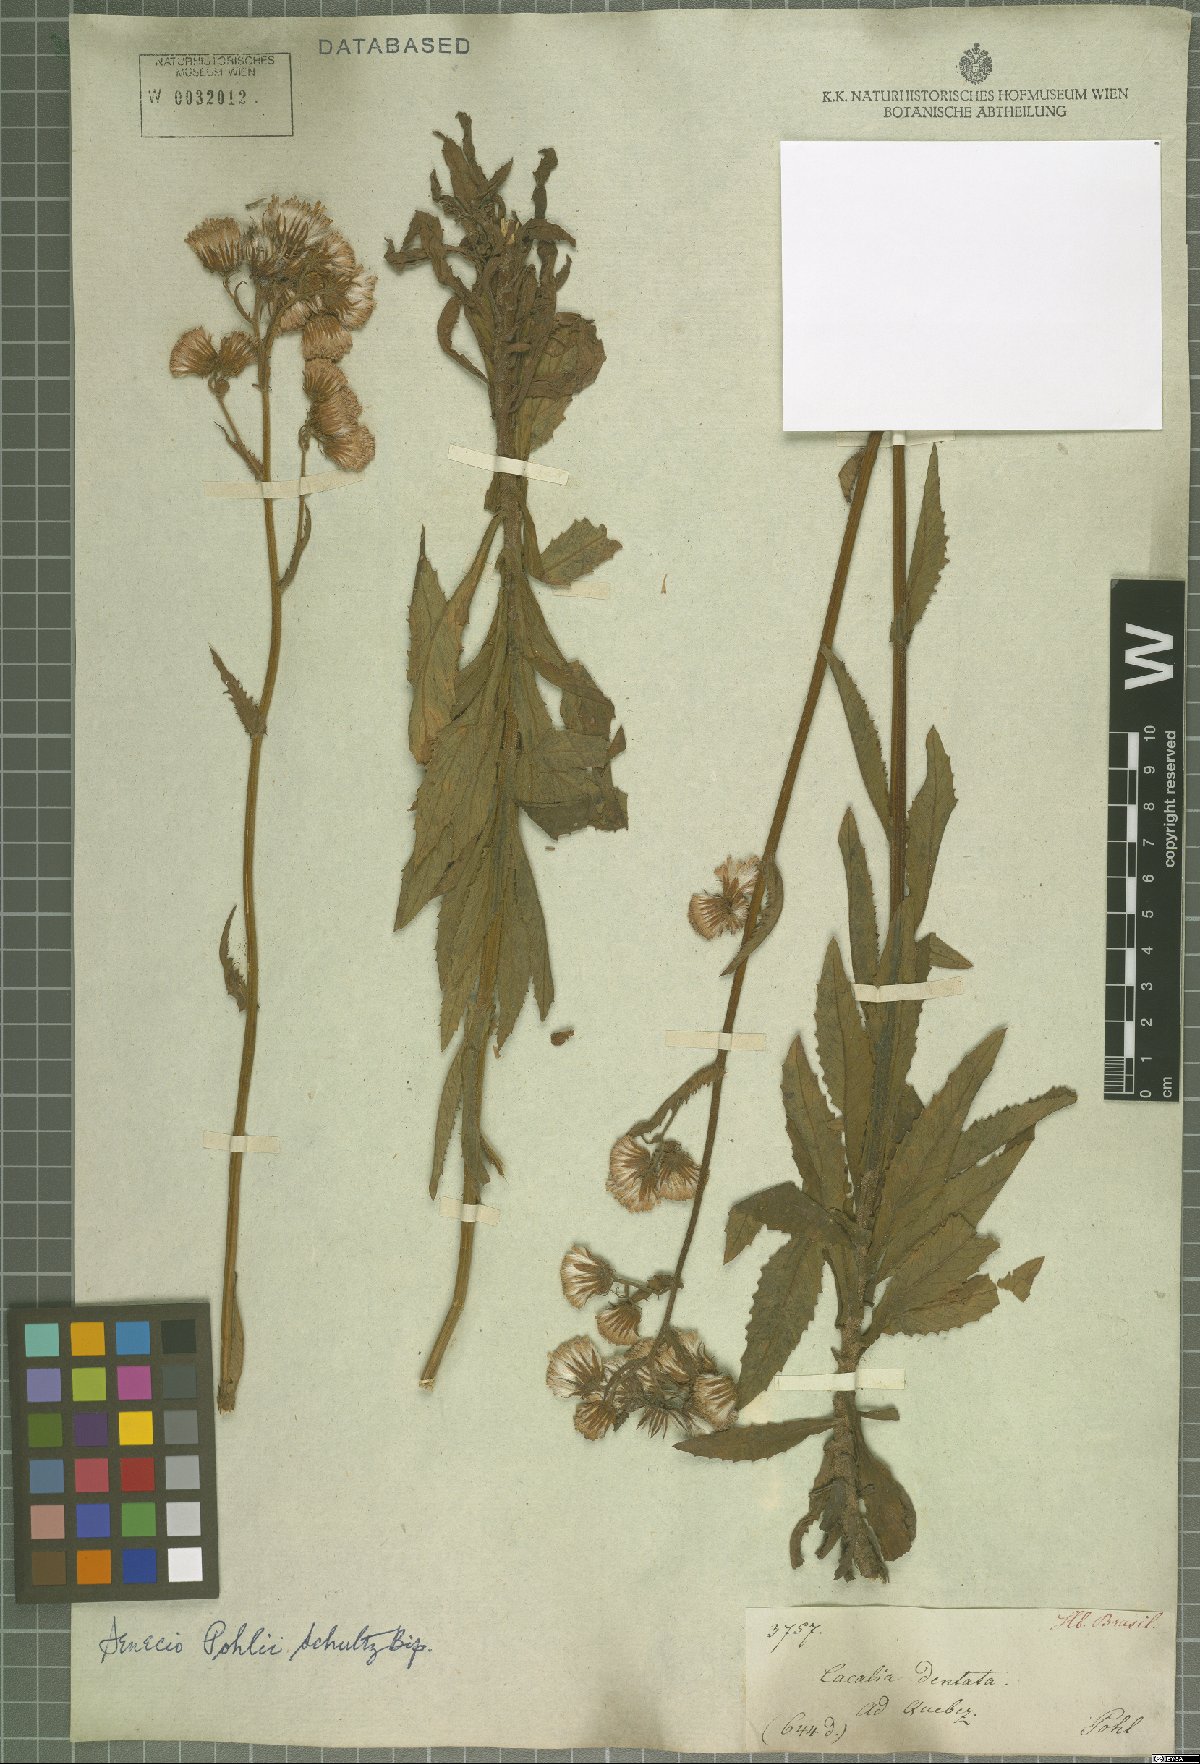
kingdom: Plantae
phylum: Tracheophyta
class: Magnoliopsida
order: Asterales
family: Asteraceae
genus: Pseudogynoxys
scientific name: Pseudogynoxys pohlii
